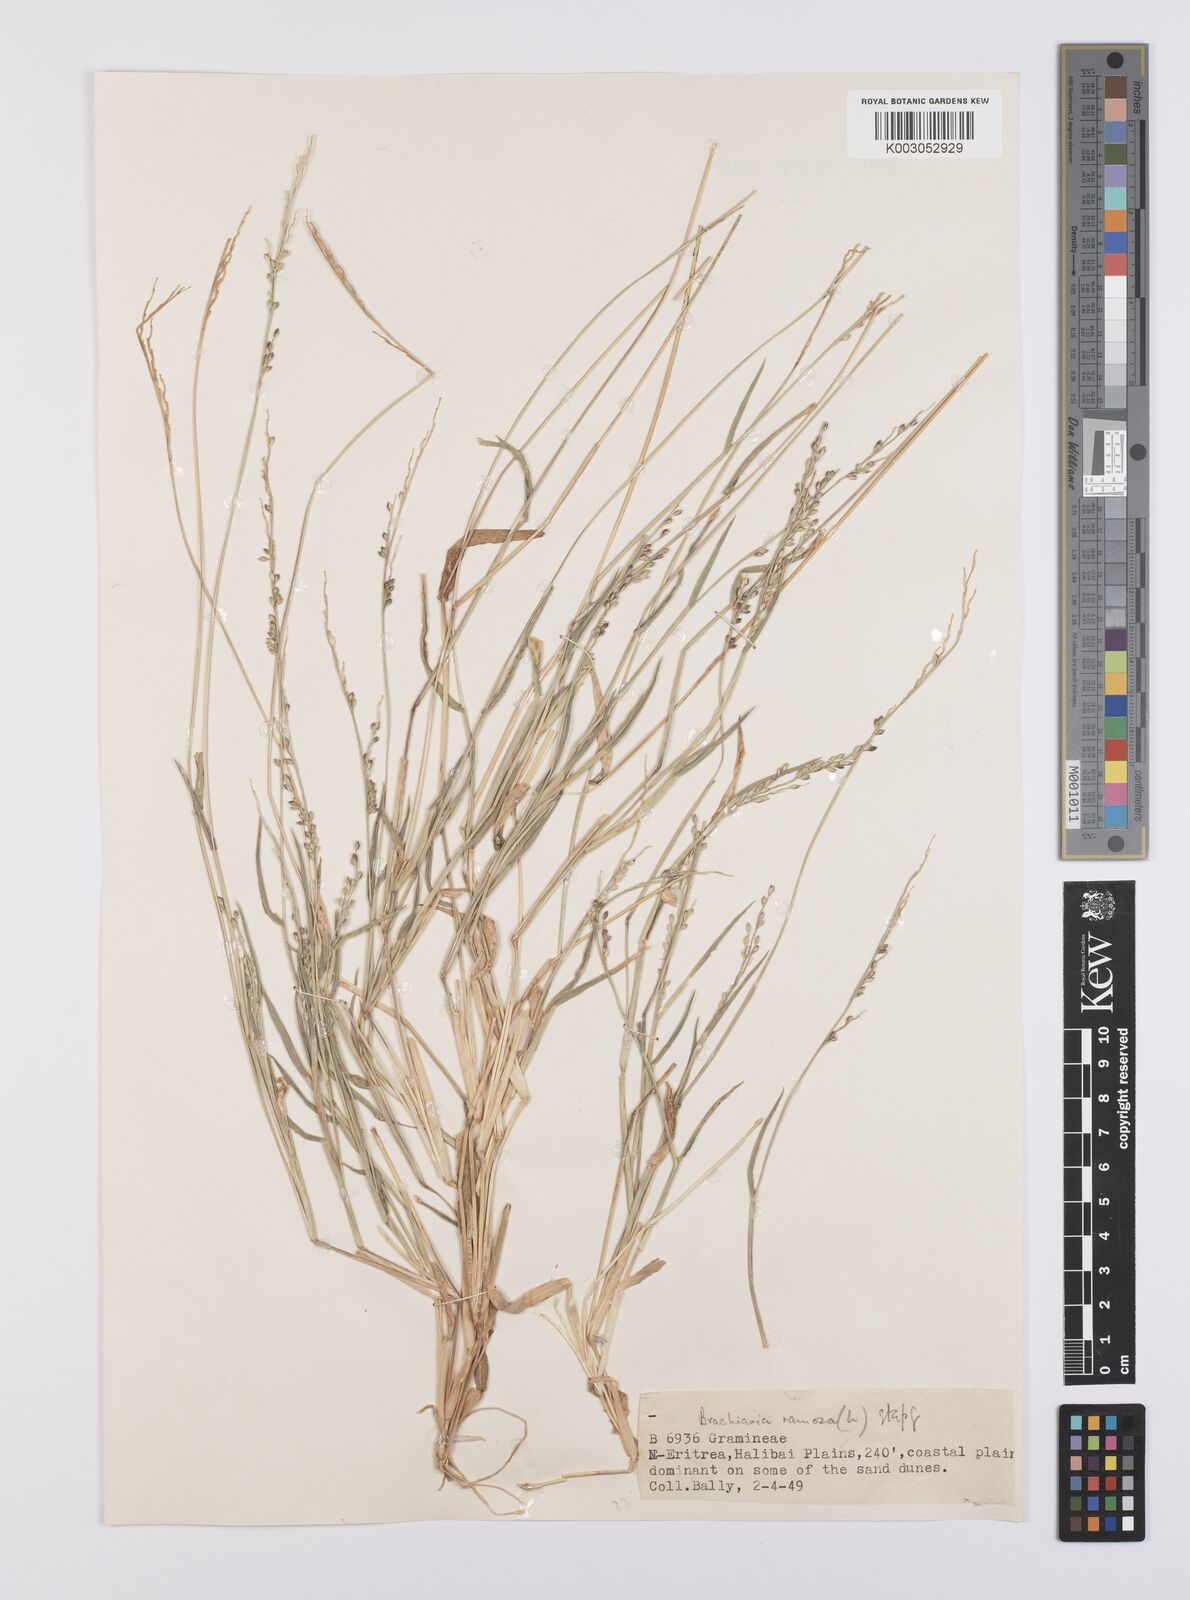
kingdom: Plantae
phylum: Tracheophyta
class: Liliopsida
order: Poales
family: Poaceae
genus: Urochloa
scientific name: Urochloa ramosa
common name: Browntop millet
